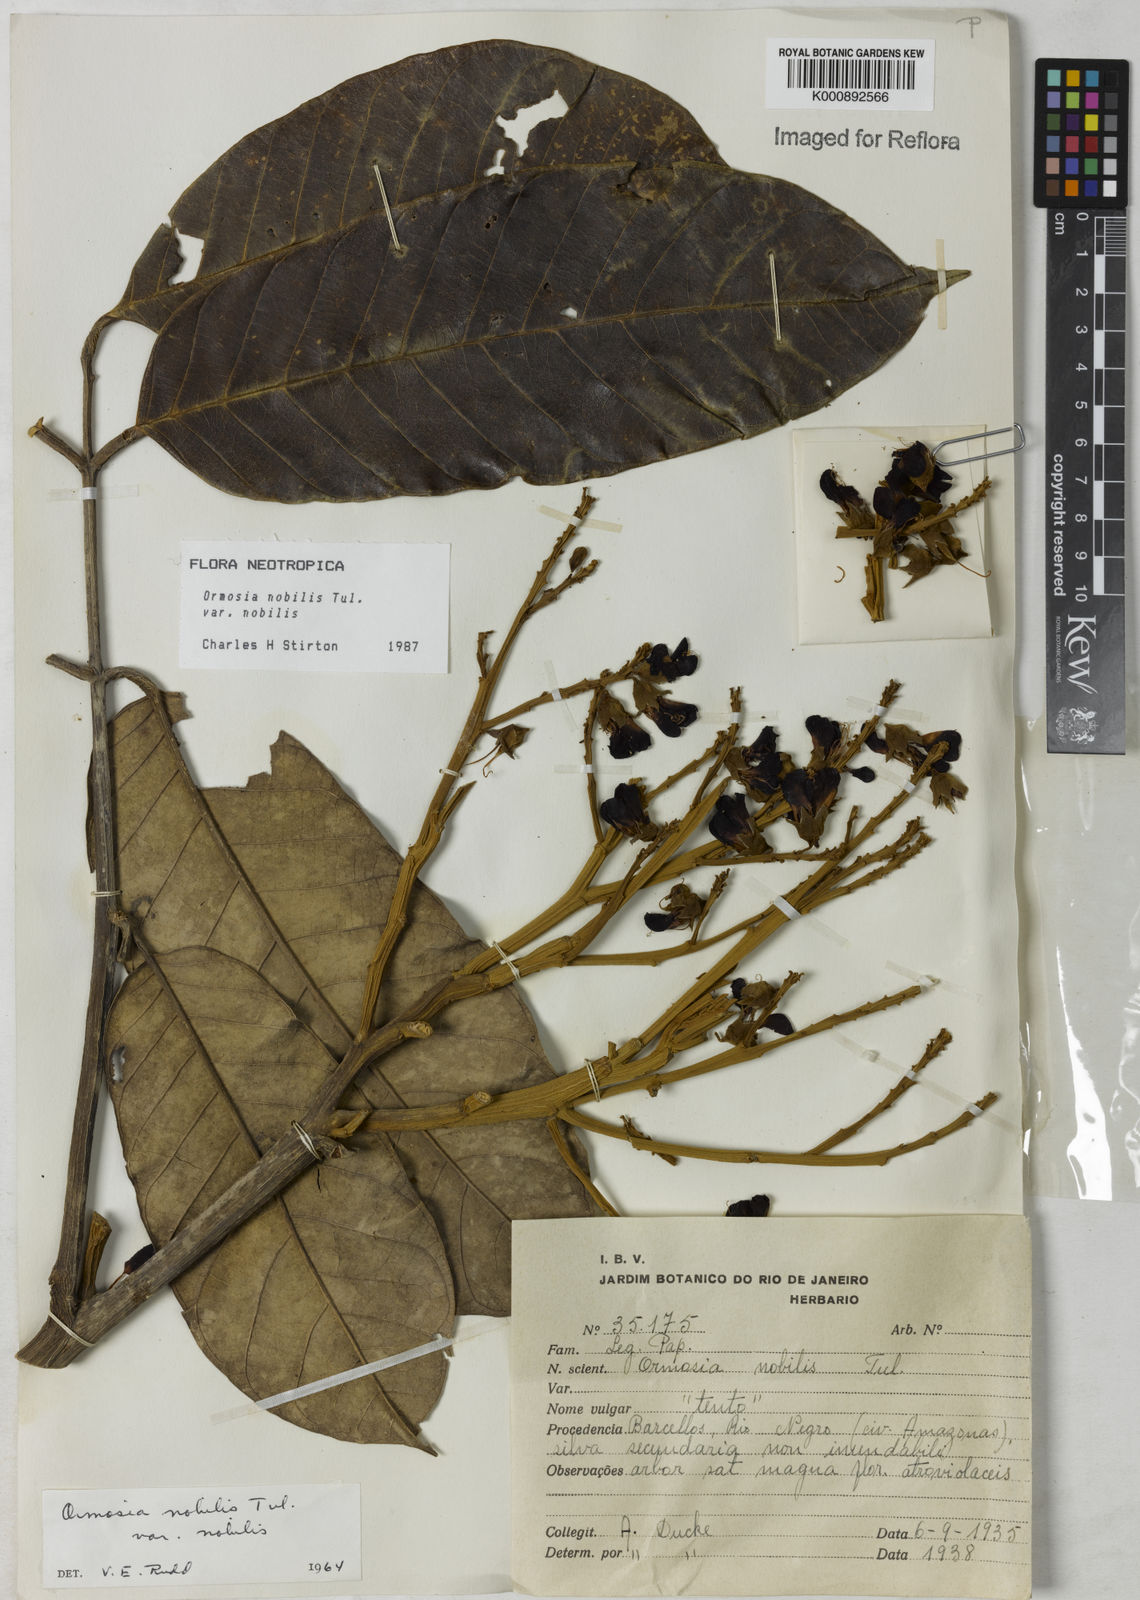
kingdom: Plantae
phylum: Tracheophyta
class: Magnoliopsida
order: Fabales
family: Fabaceae
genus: Ormosia
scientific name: Ormosia nobilis
